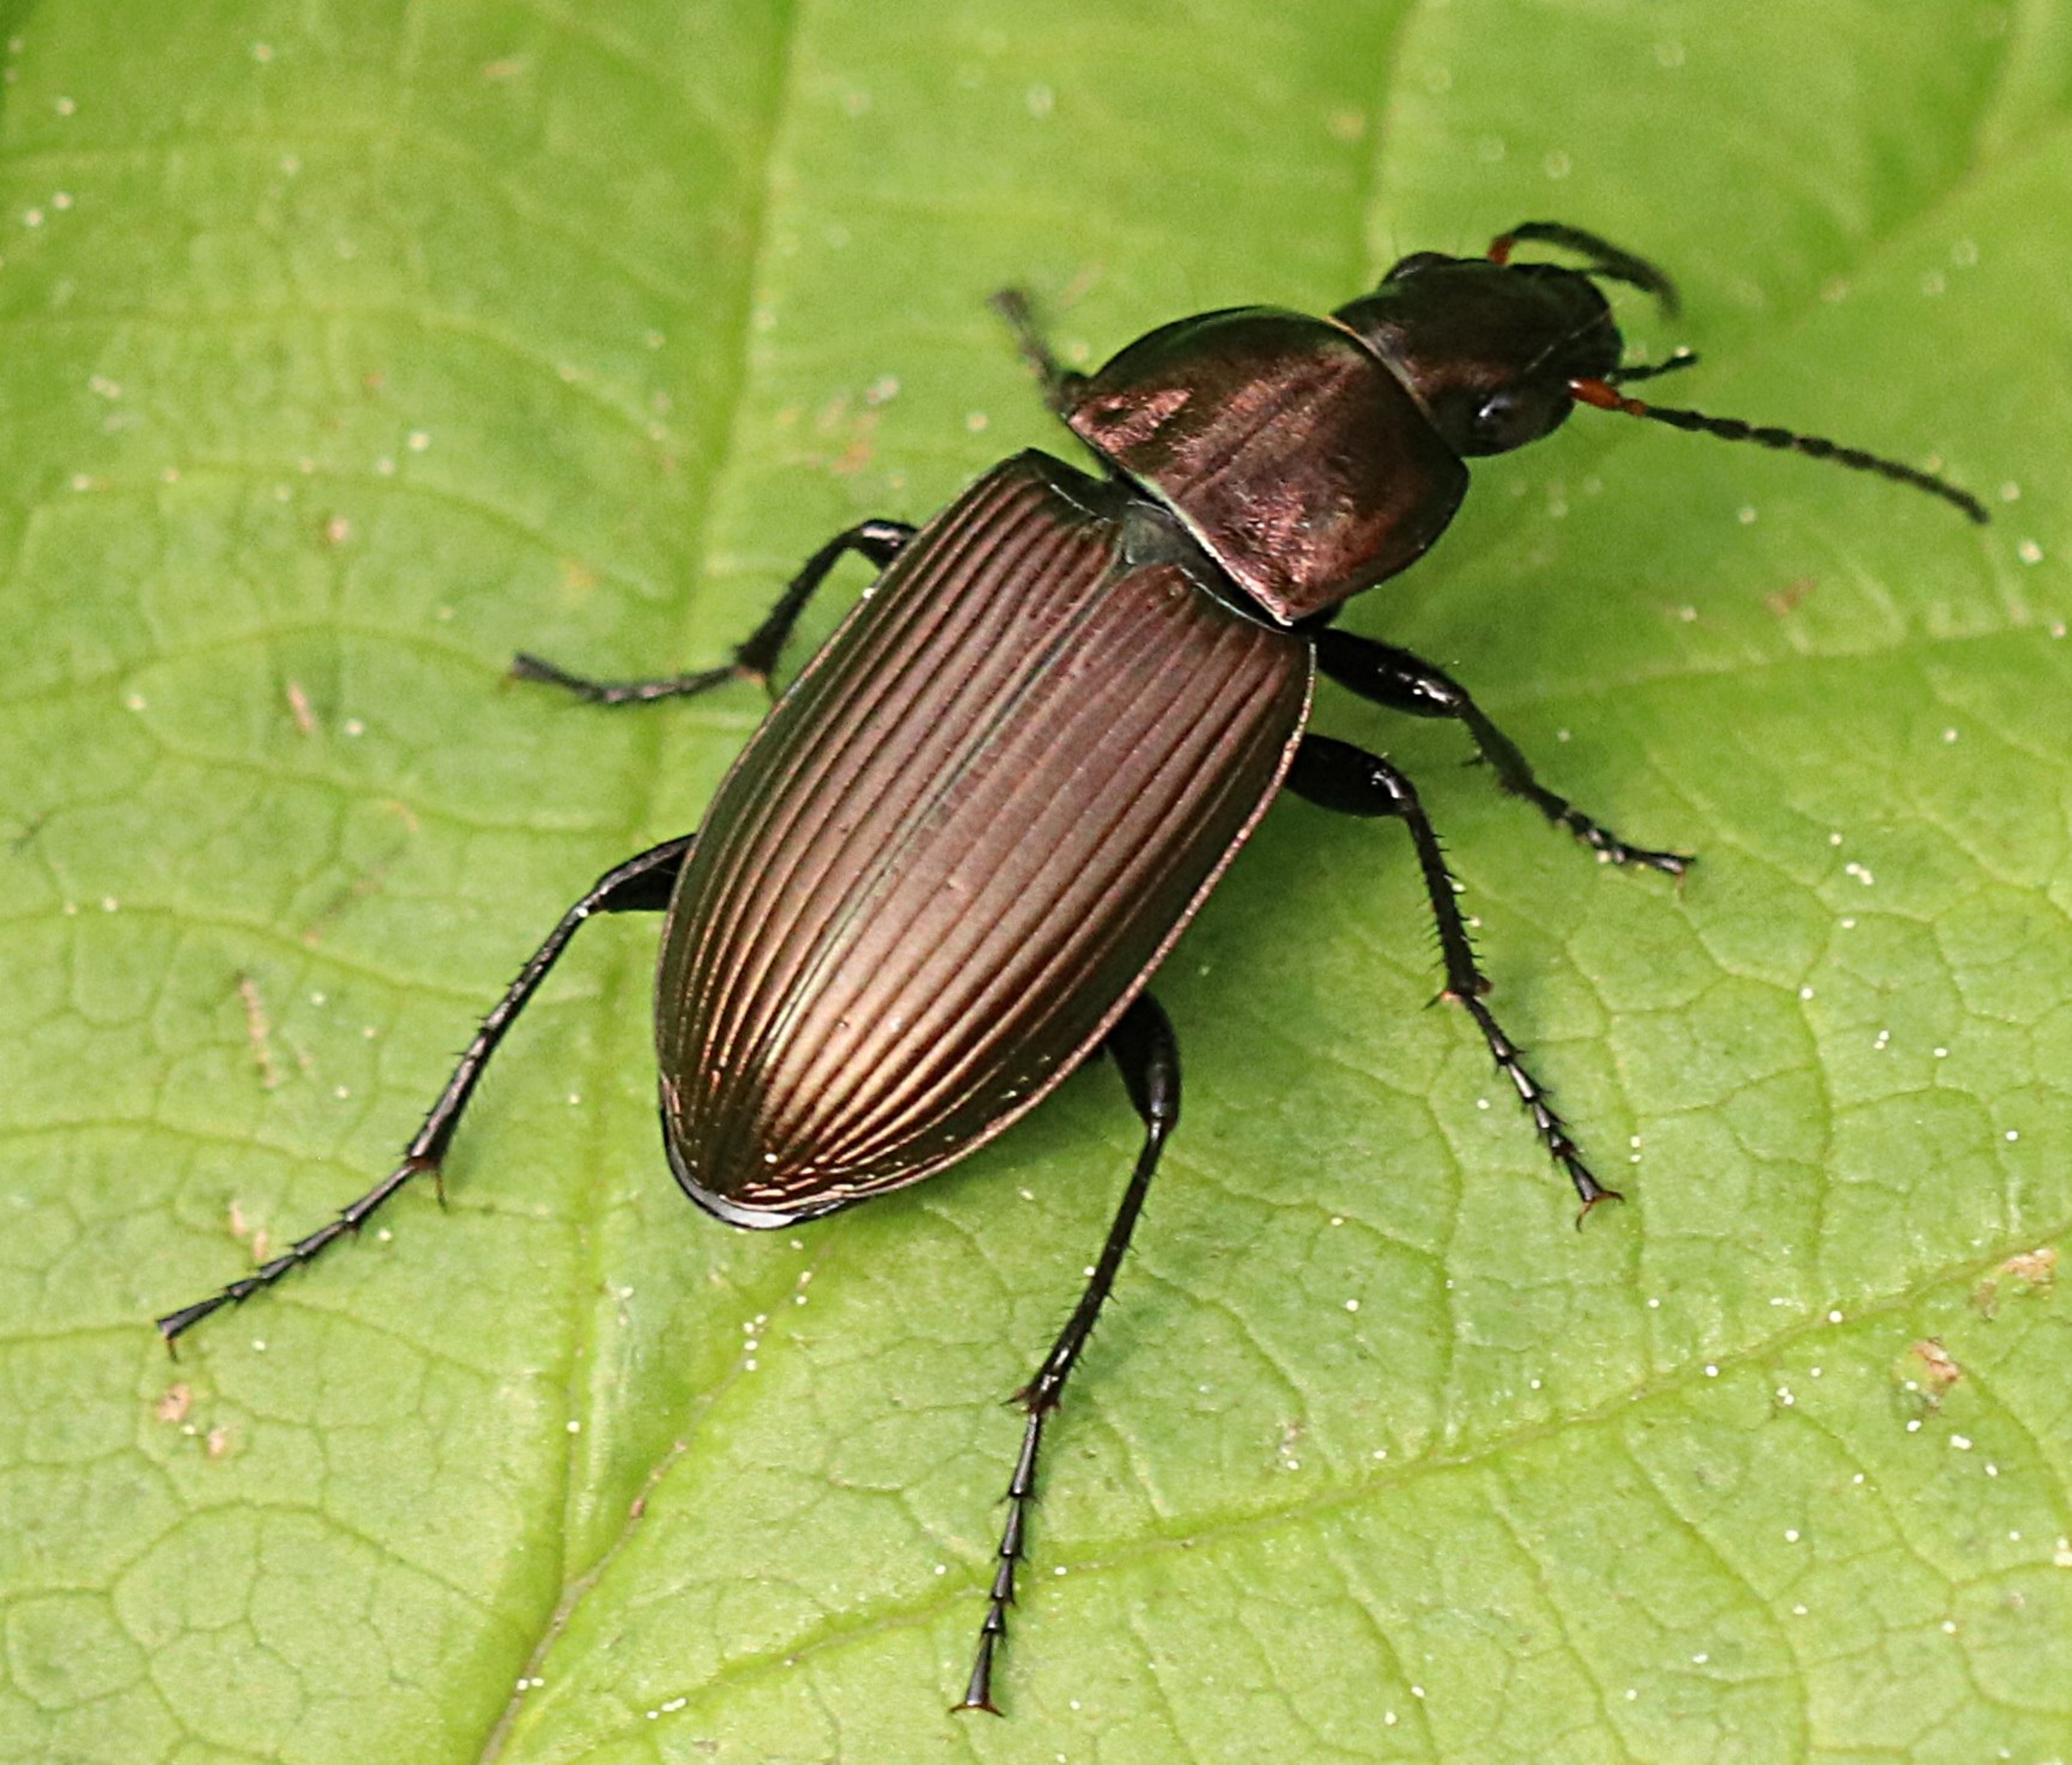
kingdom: Animalia
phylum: Arthropoda
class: Insecta
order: Coleoptera
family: Carabidae
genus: Poecilus
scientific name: Poecilus cupreus
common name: Bred metaljordløber
